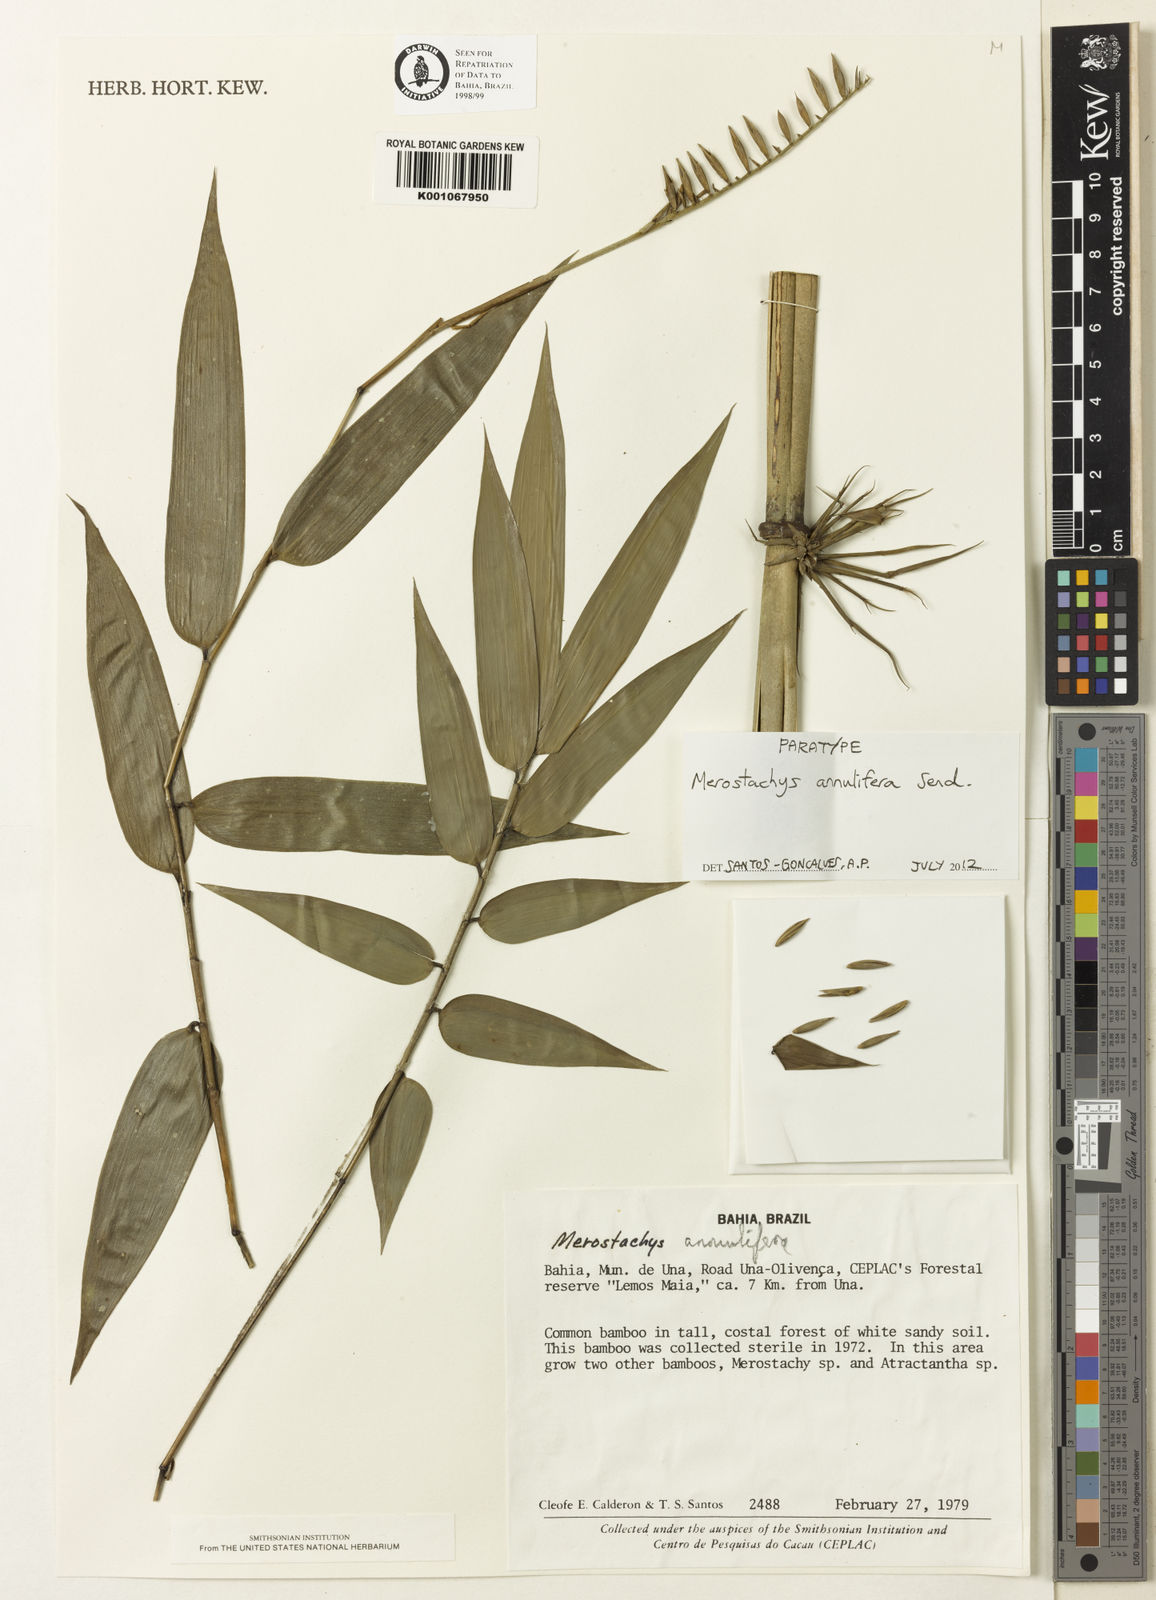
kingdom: Plantae
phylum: Tracheophyta
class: Liliopsida
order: Poales
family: Poaceae
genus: Merostachys
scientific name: Merostachys annulifera
